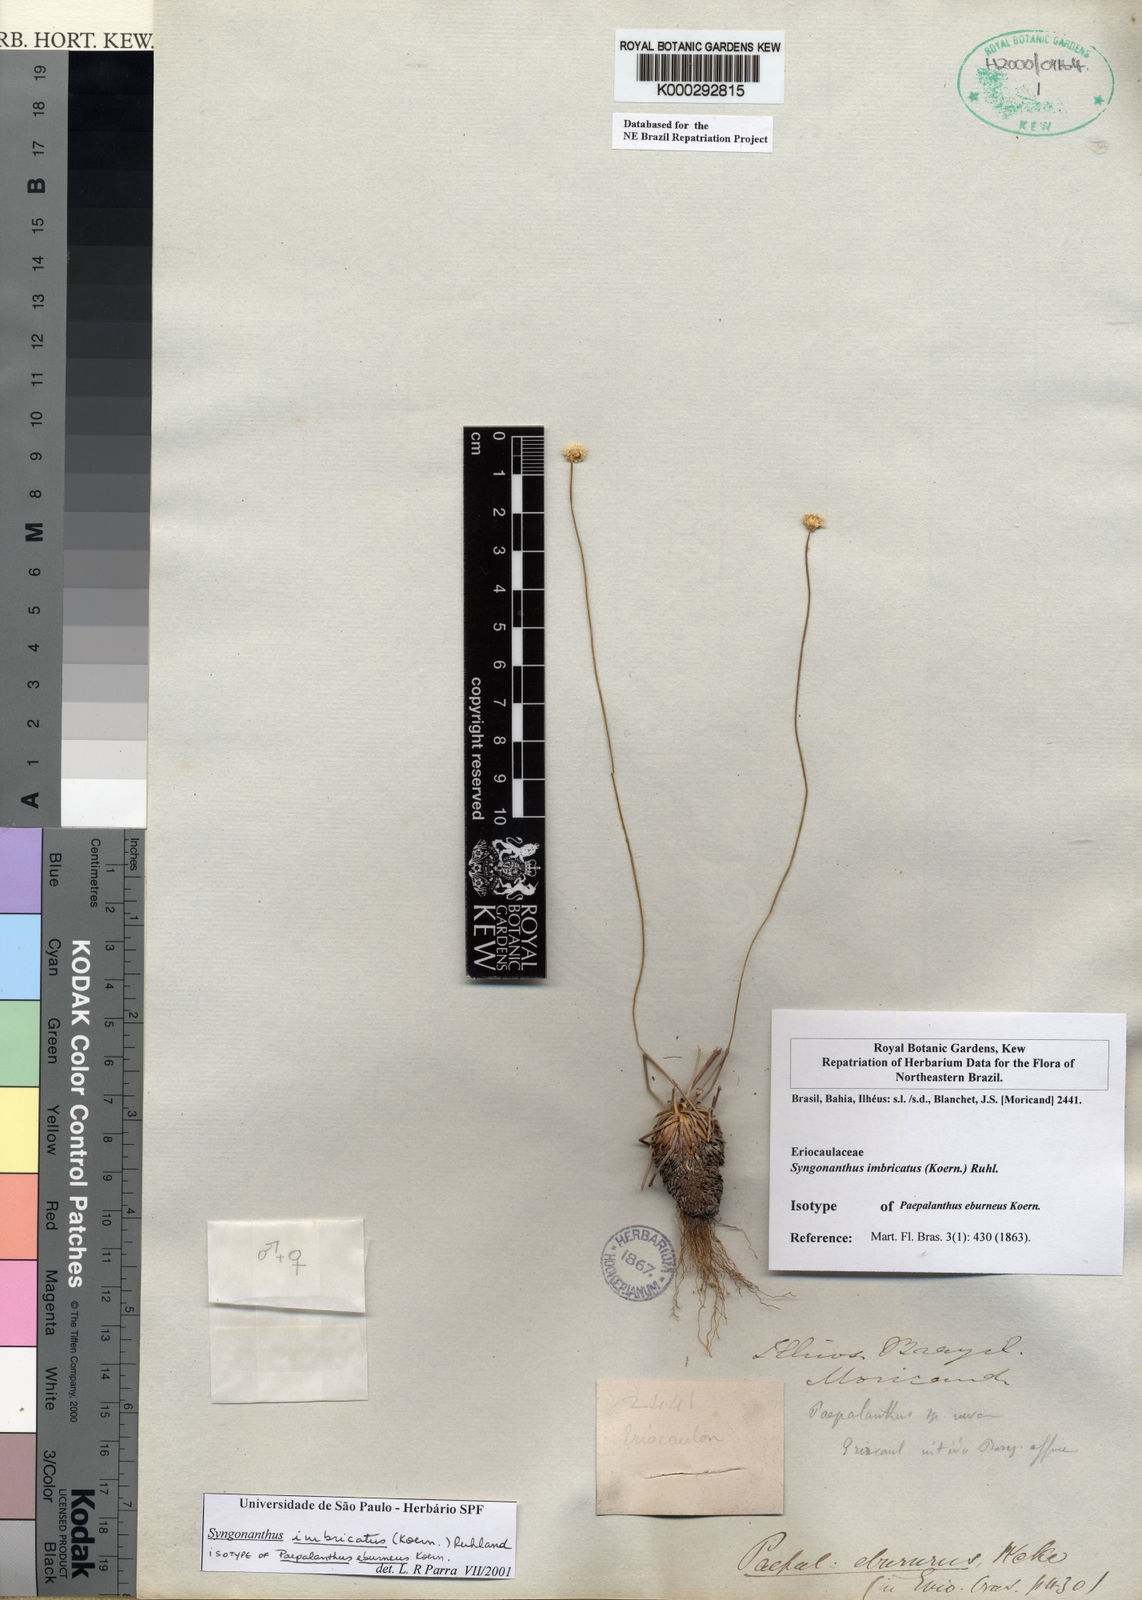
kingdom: Plantae
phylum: Tracheophyta
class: Liliopsida
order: Poales
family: Eriocaulaceae
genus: Comanthera
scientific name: Comanthera imbricata
